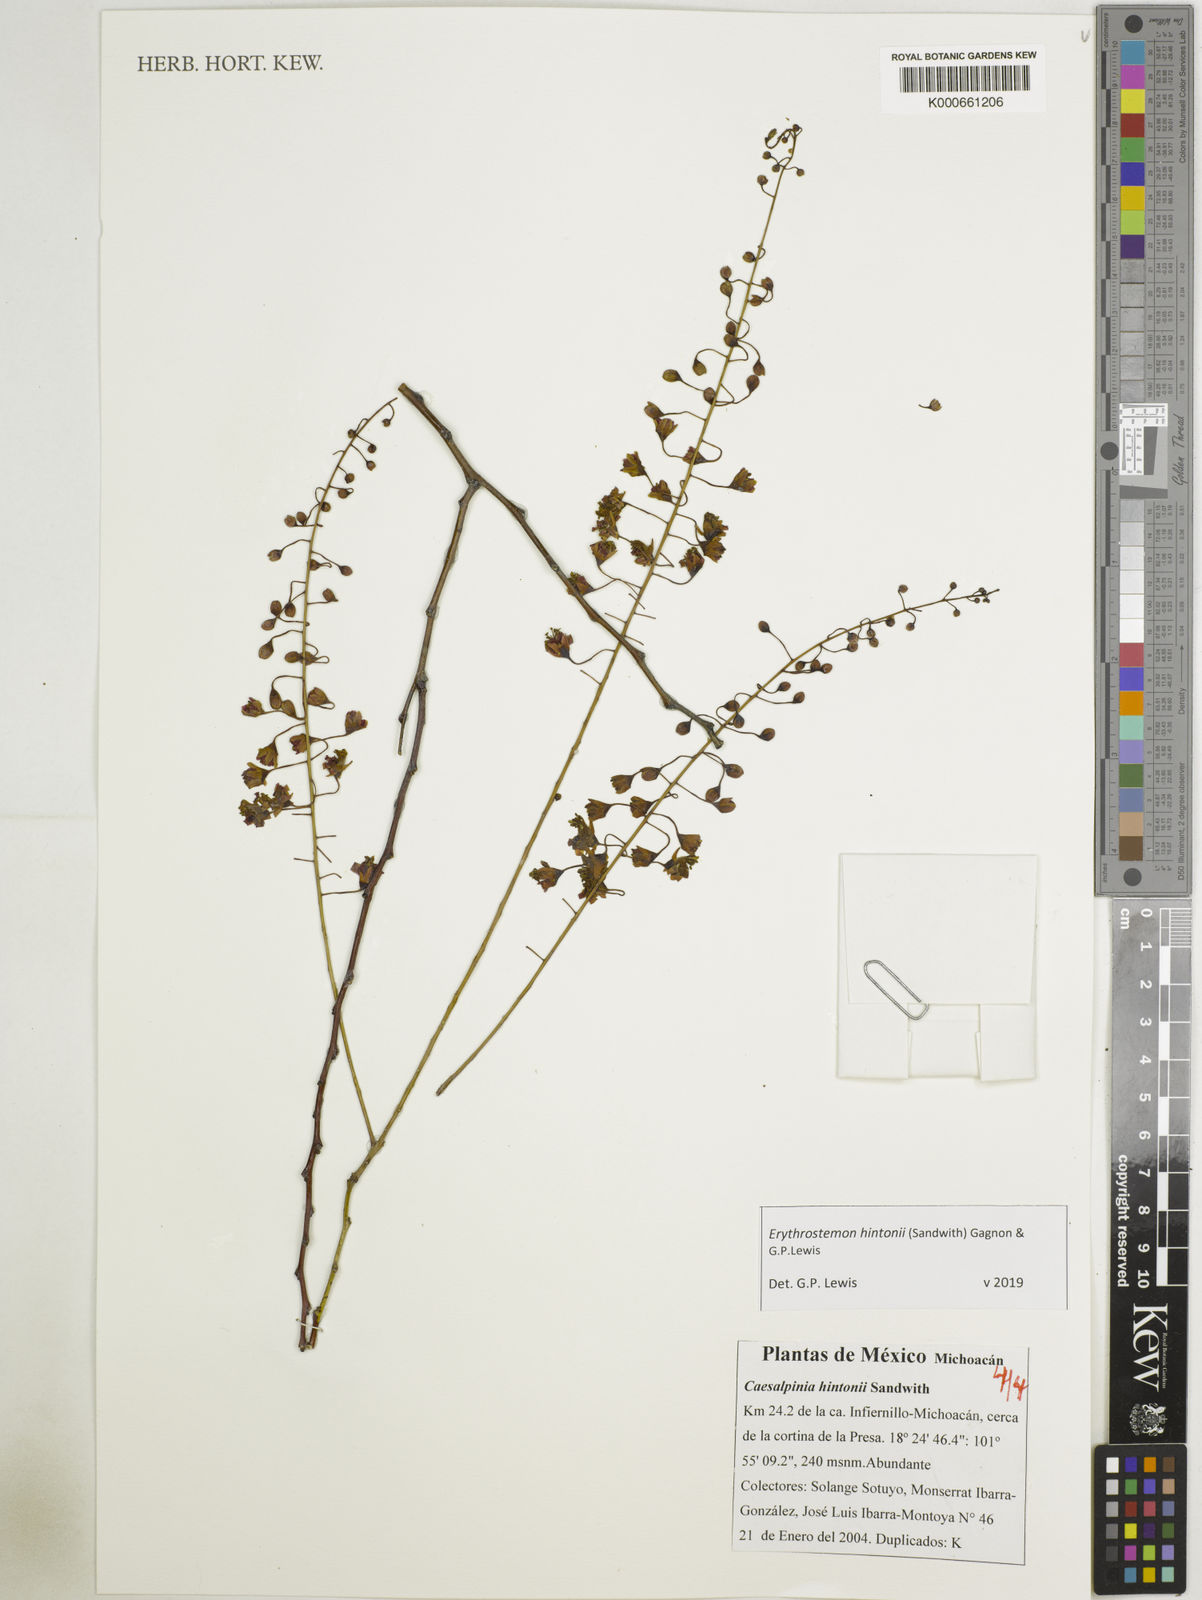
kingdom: Plantae
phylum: Tracheophyta
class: Magnoliopsida
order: Fabales
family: Fabaceae
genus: Erythrostemon
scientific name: Erythrostemon hintonii
